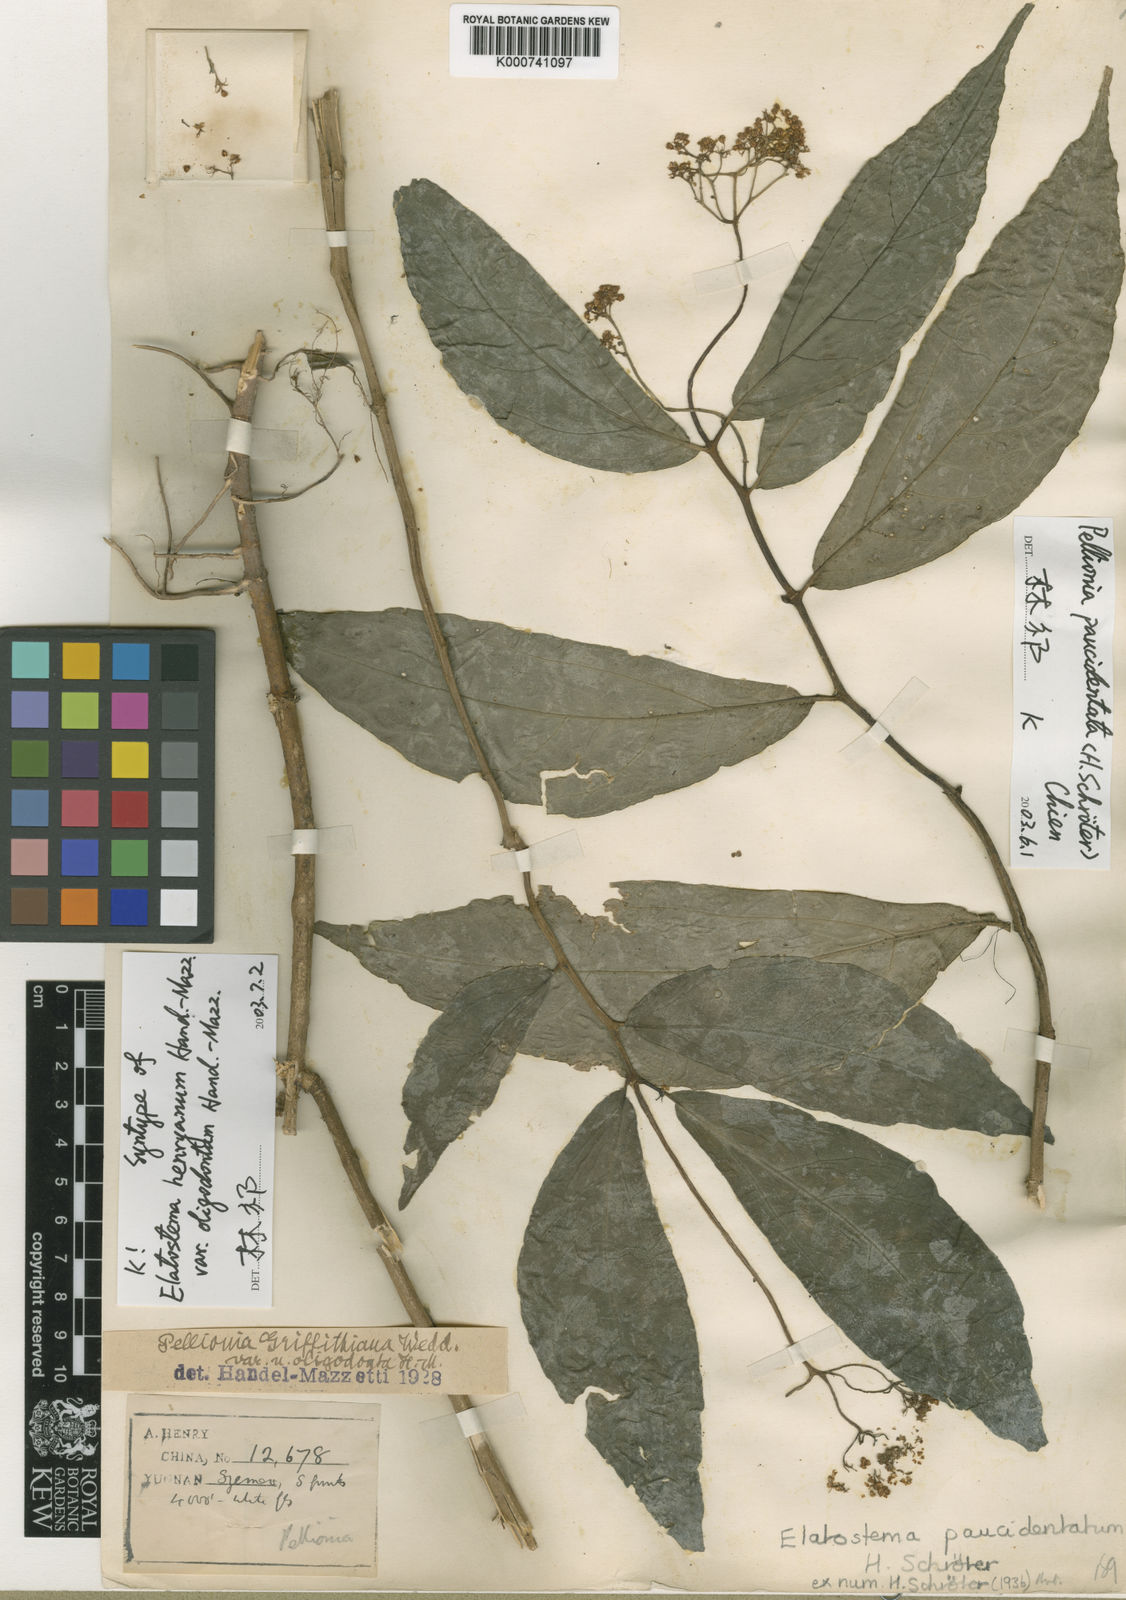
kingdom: Plantae
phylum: Tracheophyta
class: Magnoliopsida
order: Rosales
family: Urticaceae
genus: Elatostema
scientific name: Elatostema paucidentatum
